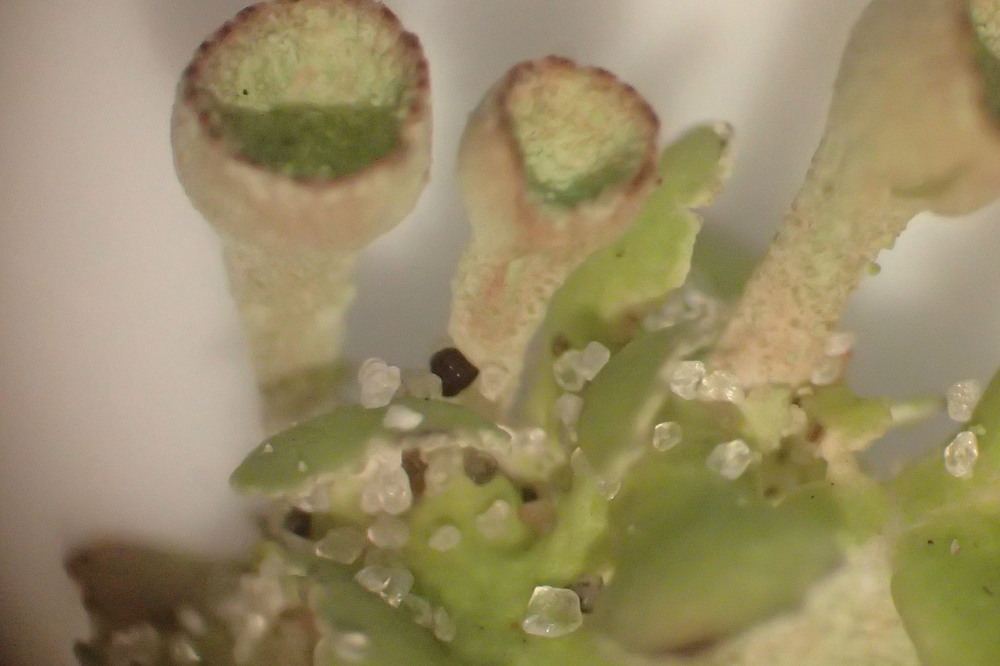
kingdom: Fungi
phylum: Ascomycota
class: Lecanoromycetes
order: Lecanorales
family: Cladoniaceae
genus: Cladonia
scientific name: Cladonia humilis
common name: lav bægerlav
